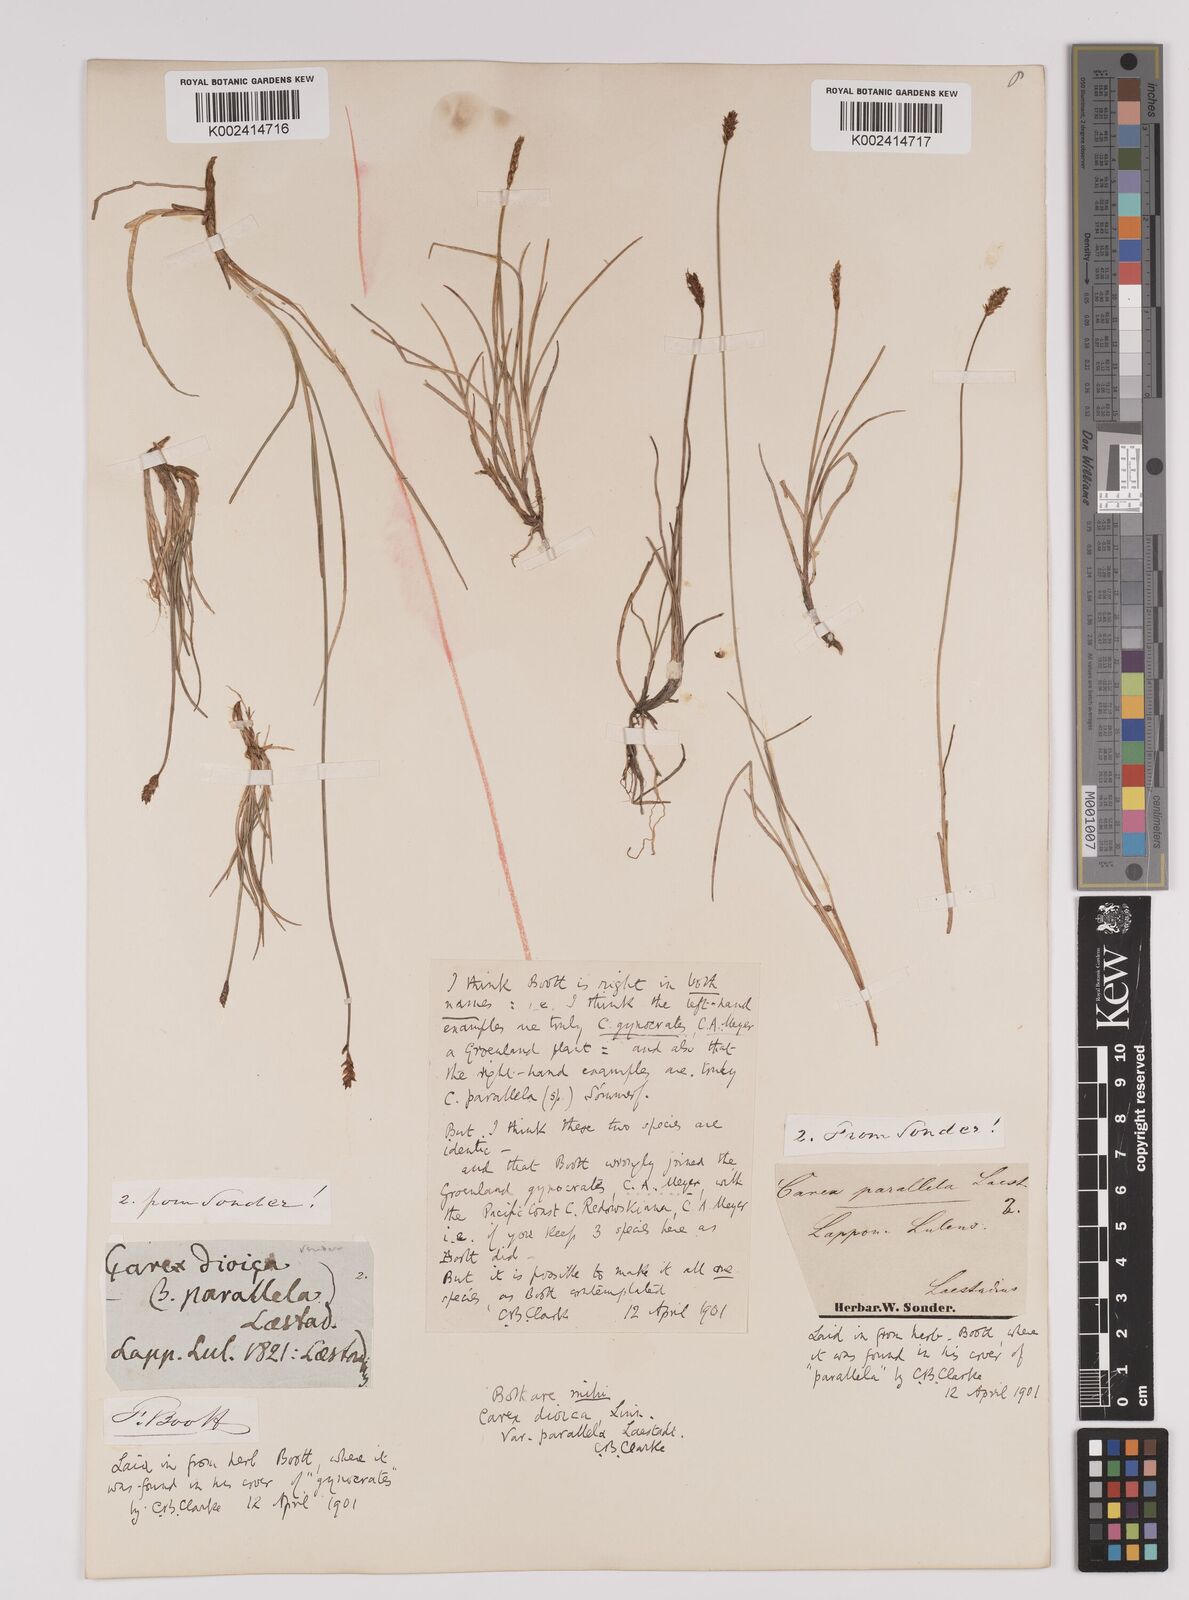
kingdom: Plantae
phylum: Tracheophyta
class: Liliopsida
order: Poales
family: Cyperaceae
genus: Carex
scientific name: Carex parallela
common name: Parallel sedge
